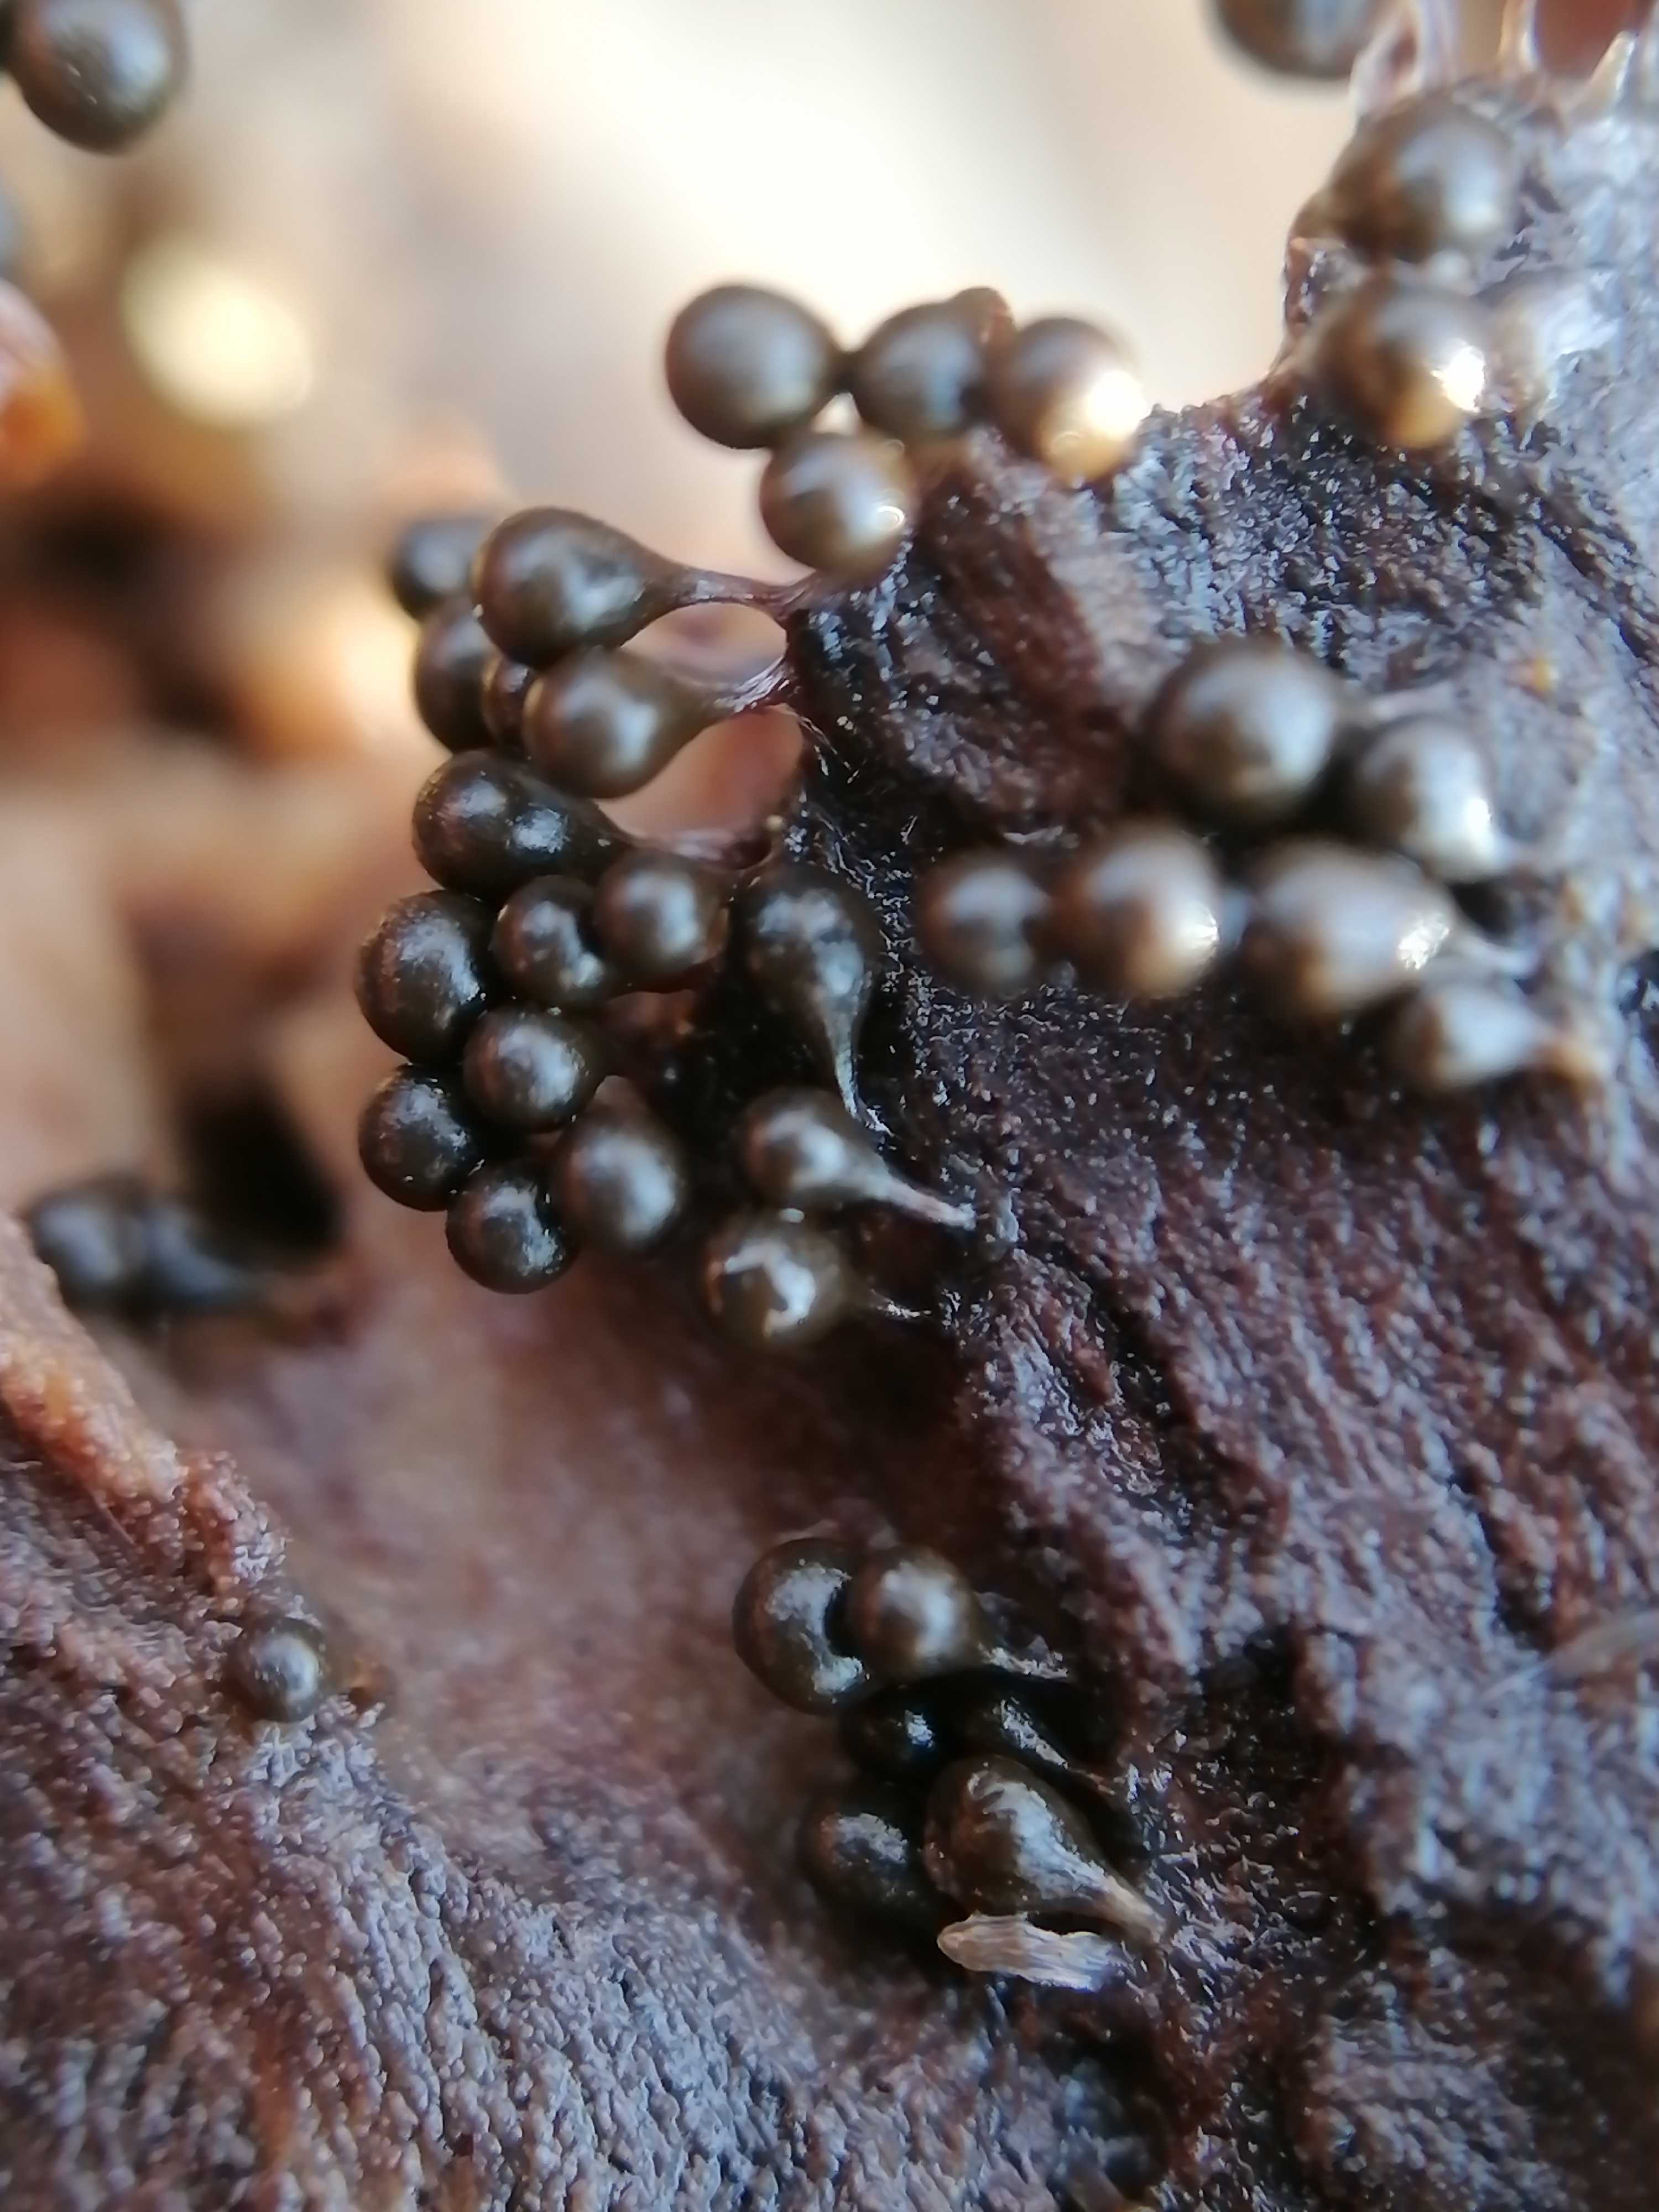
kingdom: Protozoa
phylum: Mycetozoa
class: Myxomycetes
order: Trichiales
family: Trichiaceae
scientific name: Trichiaceae
